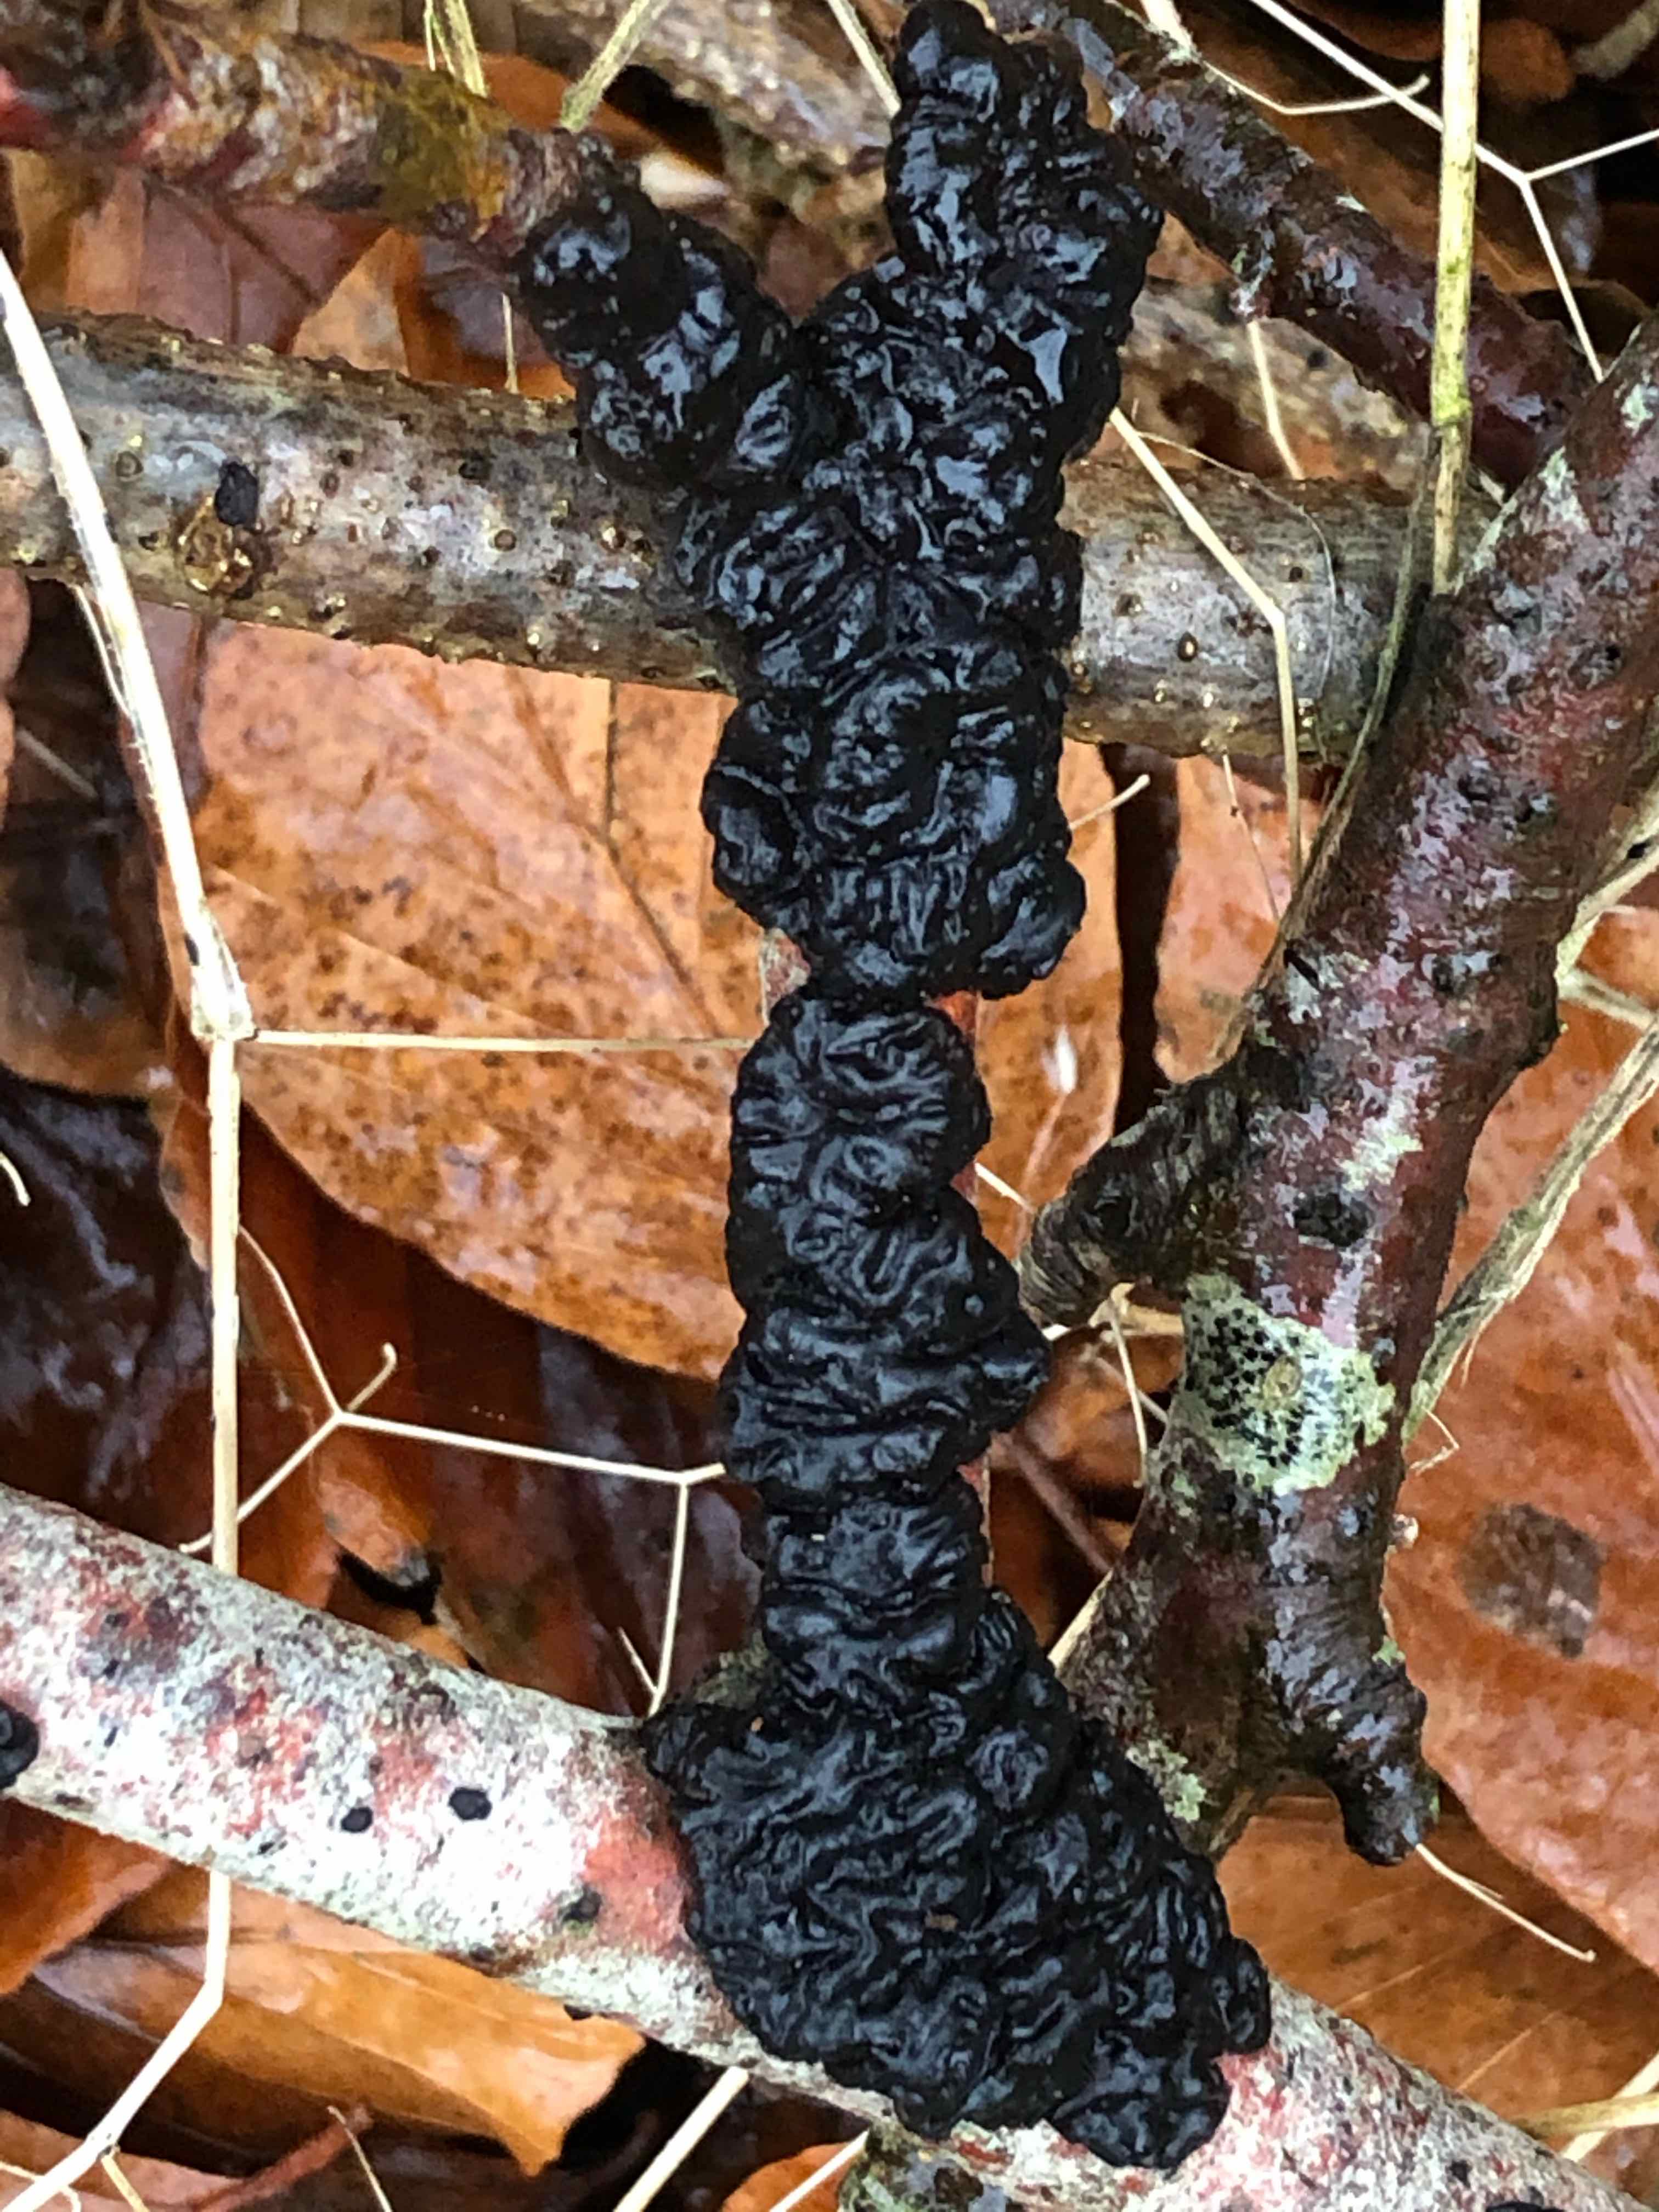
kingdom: Fungi
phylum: Basidiomycota
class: Agaricomycetes
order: Auriculariales
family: Auriculariaceae
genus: Exidia
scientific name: Exidia nigricans
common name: almindelig bævretop
